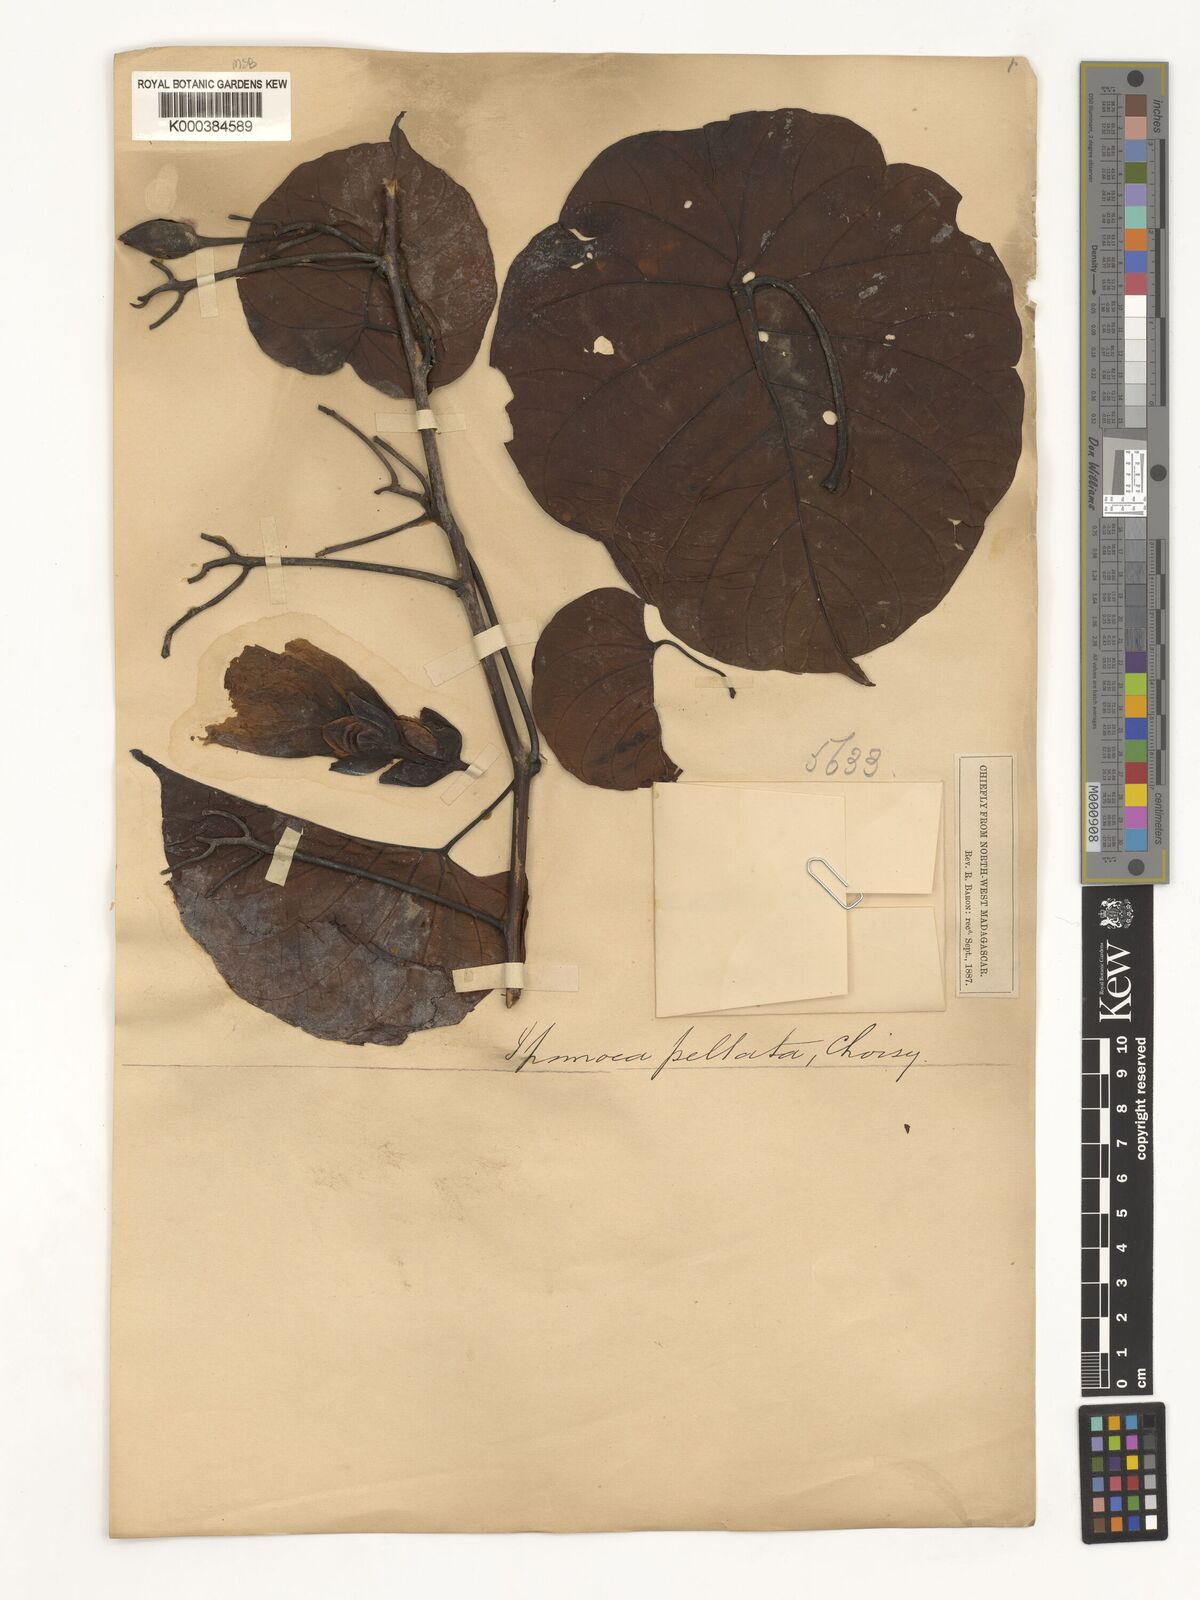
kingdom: Plantae
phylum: Tracheophyta
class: Magnoliopsida
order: Solanales
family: Convolvulaceae
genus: Decalobanthus
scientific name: Decalobanthus peltatus
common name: Merremia
